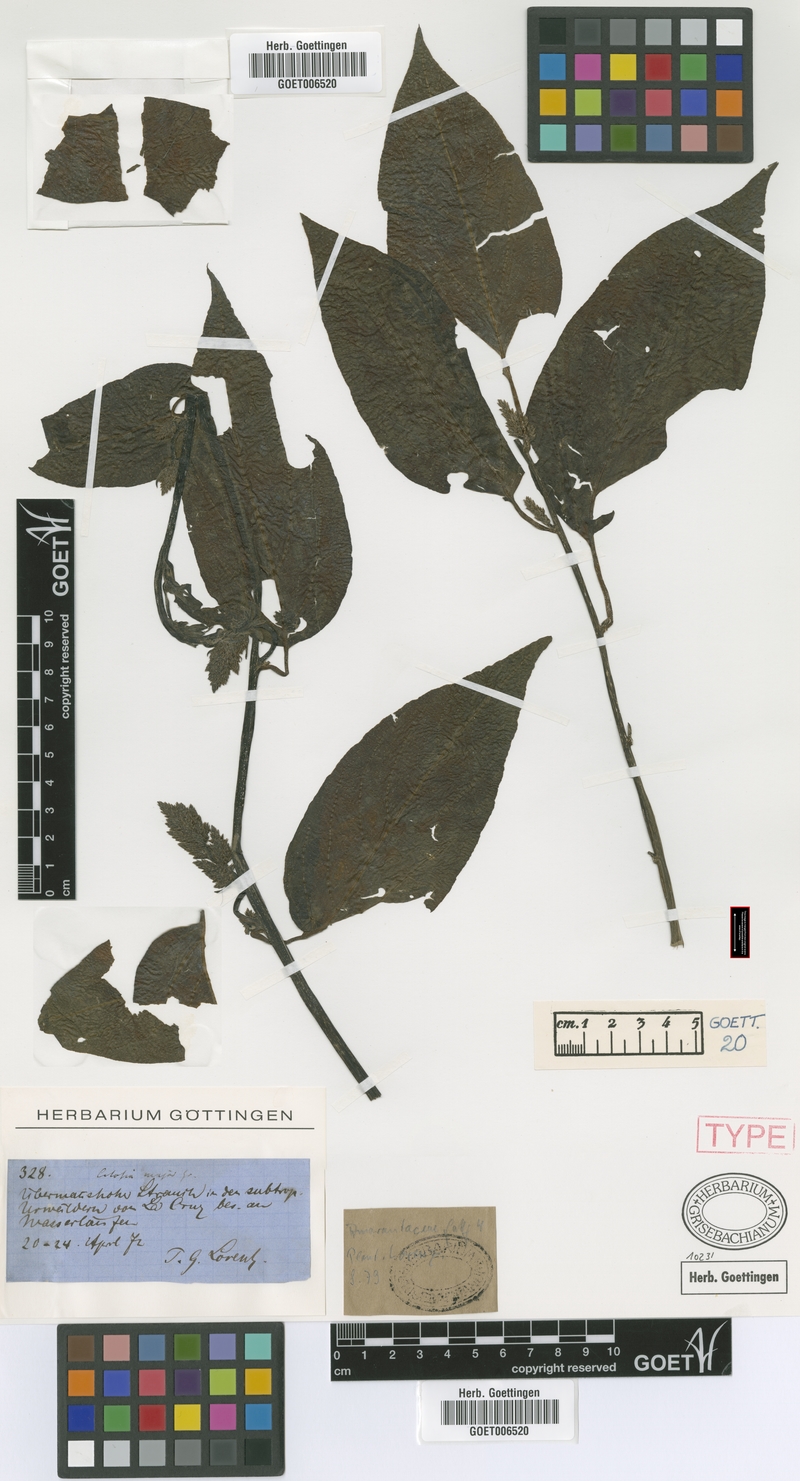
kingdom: Plantae
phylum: Tracheophyta
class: Magnoliopsida
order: Caryophyllales
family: Amaranthaceae
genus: Chamissoa
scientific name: Chamissoa altissima
